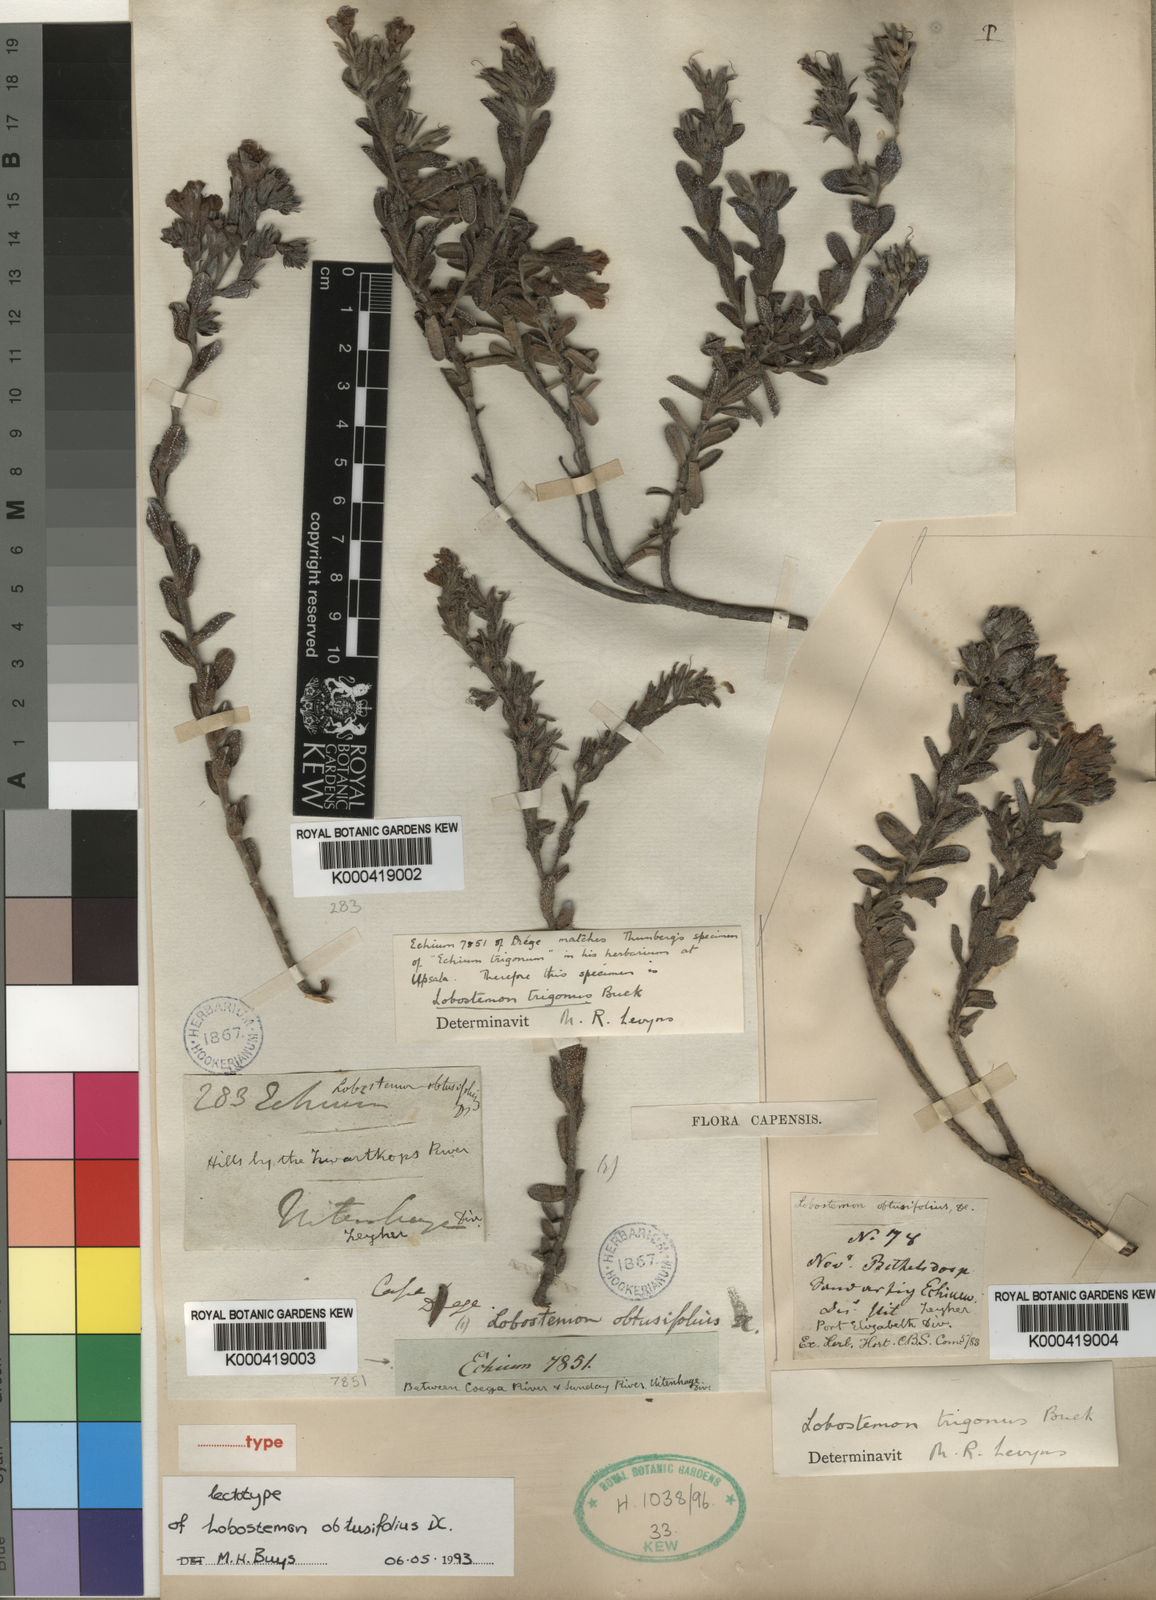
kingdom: Plantae
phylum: Tracheophyta
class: Magnoliopsida
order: Boraginales
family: Boraginaceae
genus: Lobostemon
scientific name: Lobostemon trigonus
